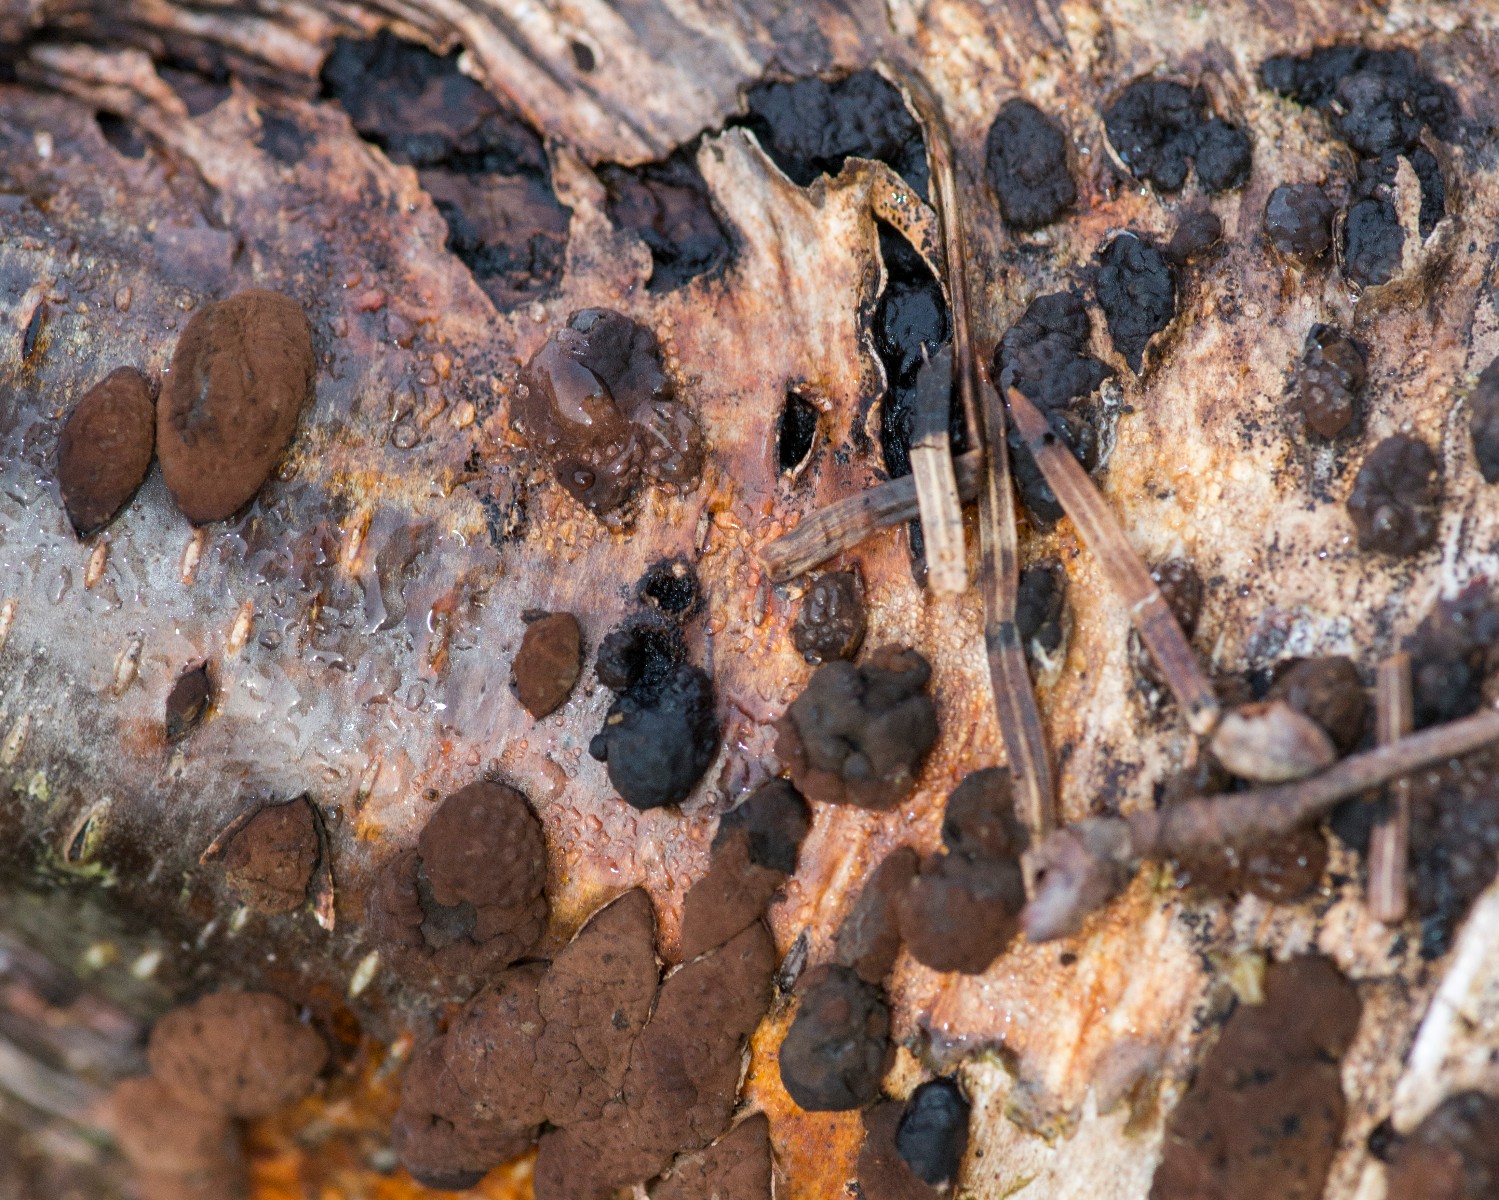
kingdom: Fungi
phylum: Ascomycota
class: Sordariomycetes
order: Xylariales
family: Hypoxylaceae
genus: Jackrogersella
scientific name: Jackrogersella multiformis
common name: foranderlig kulbær
